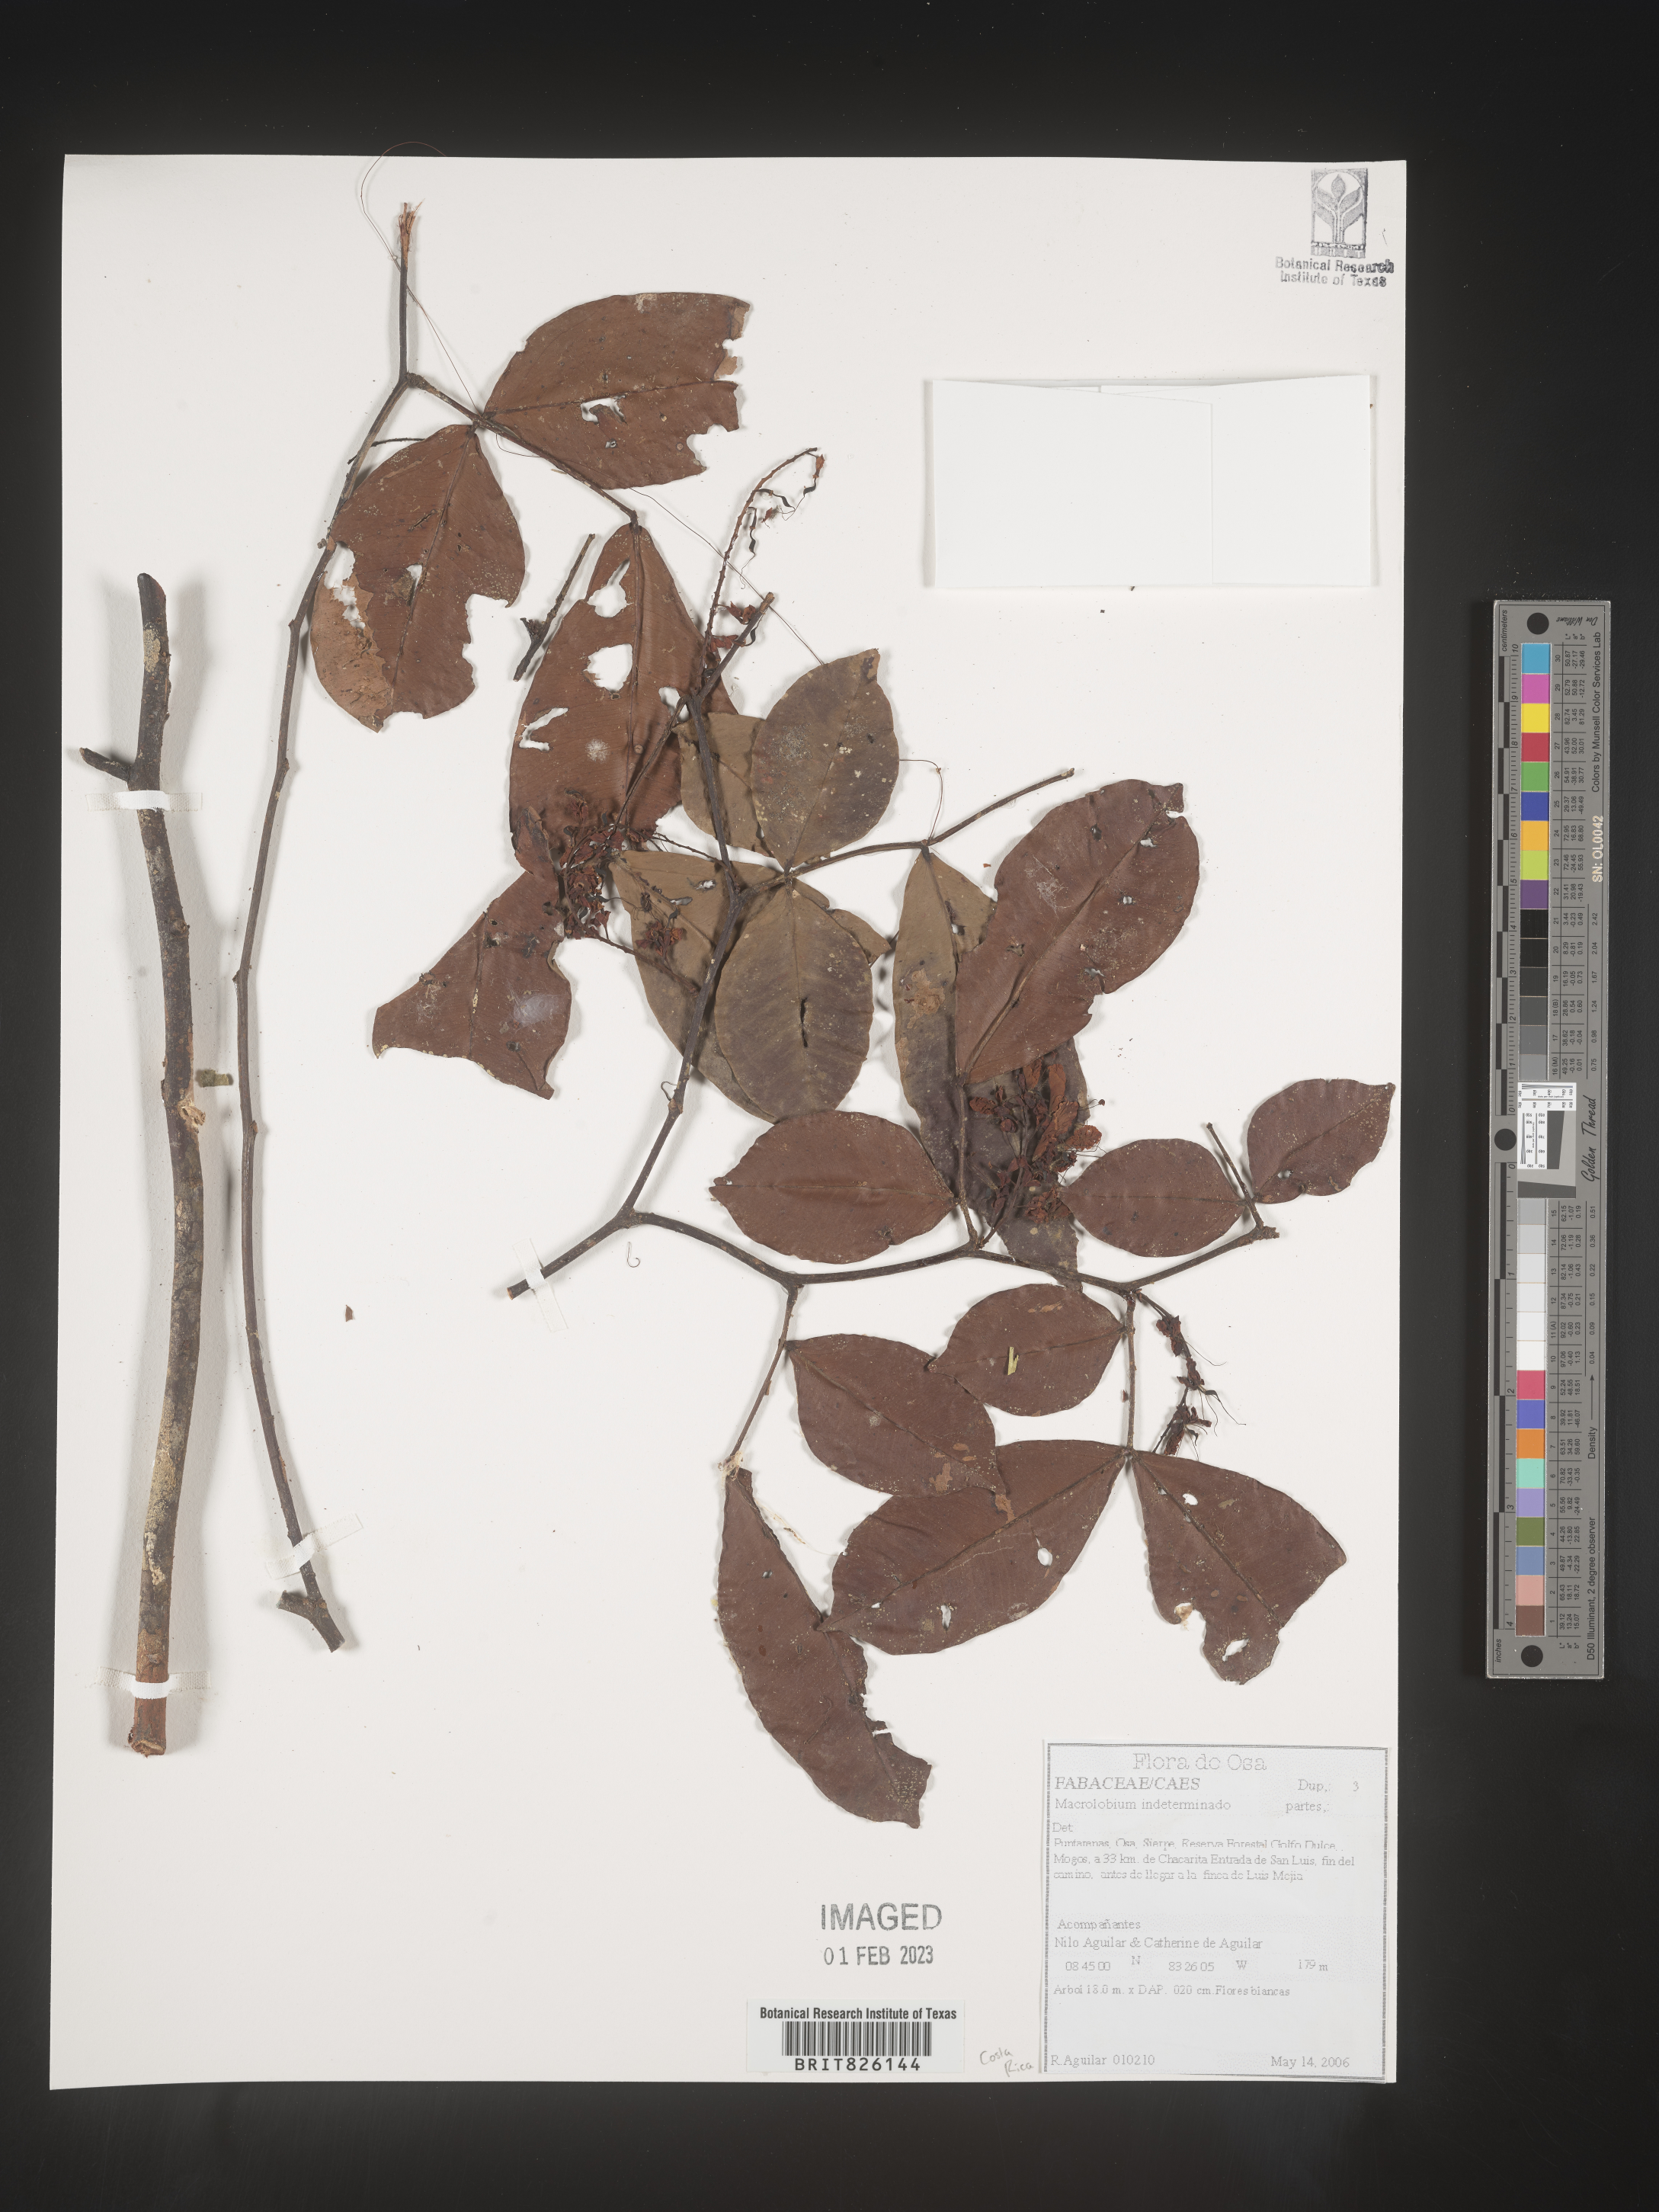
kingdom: Plantae
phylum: Tracheophyta
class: Magnoliopsida
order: Fabales
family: Fabaceae
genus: Macroptilium
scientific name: Macroptilium
